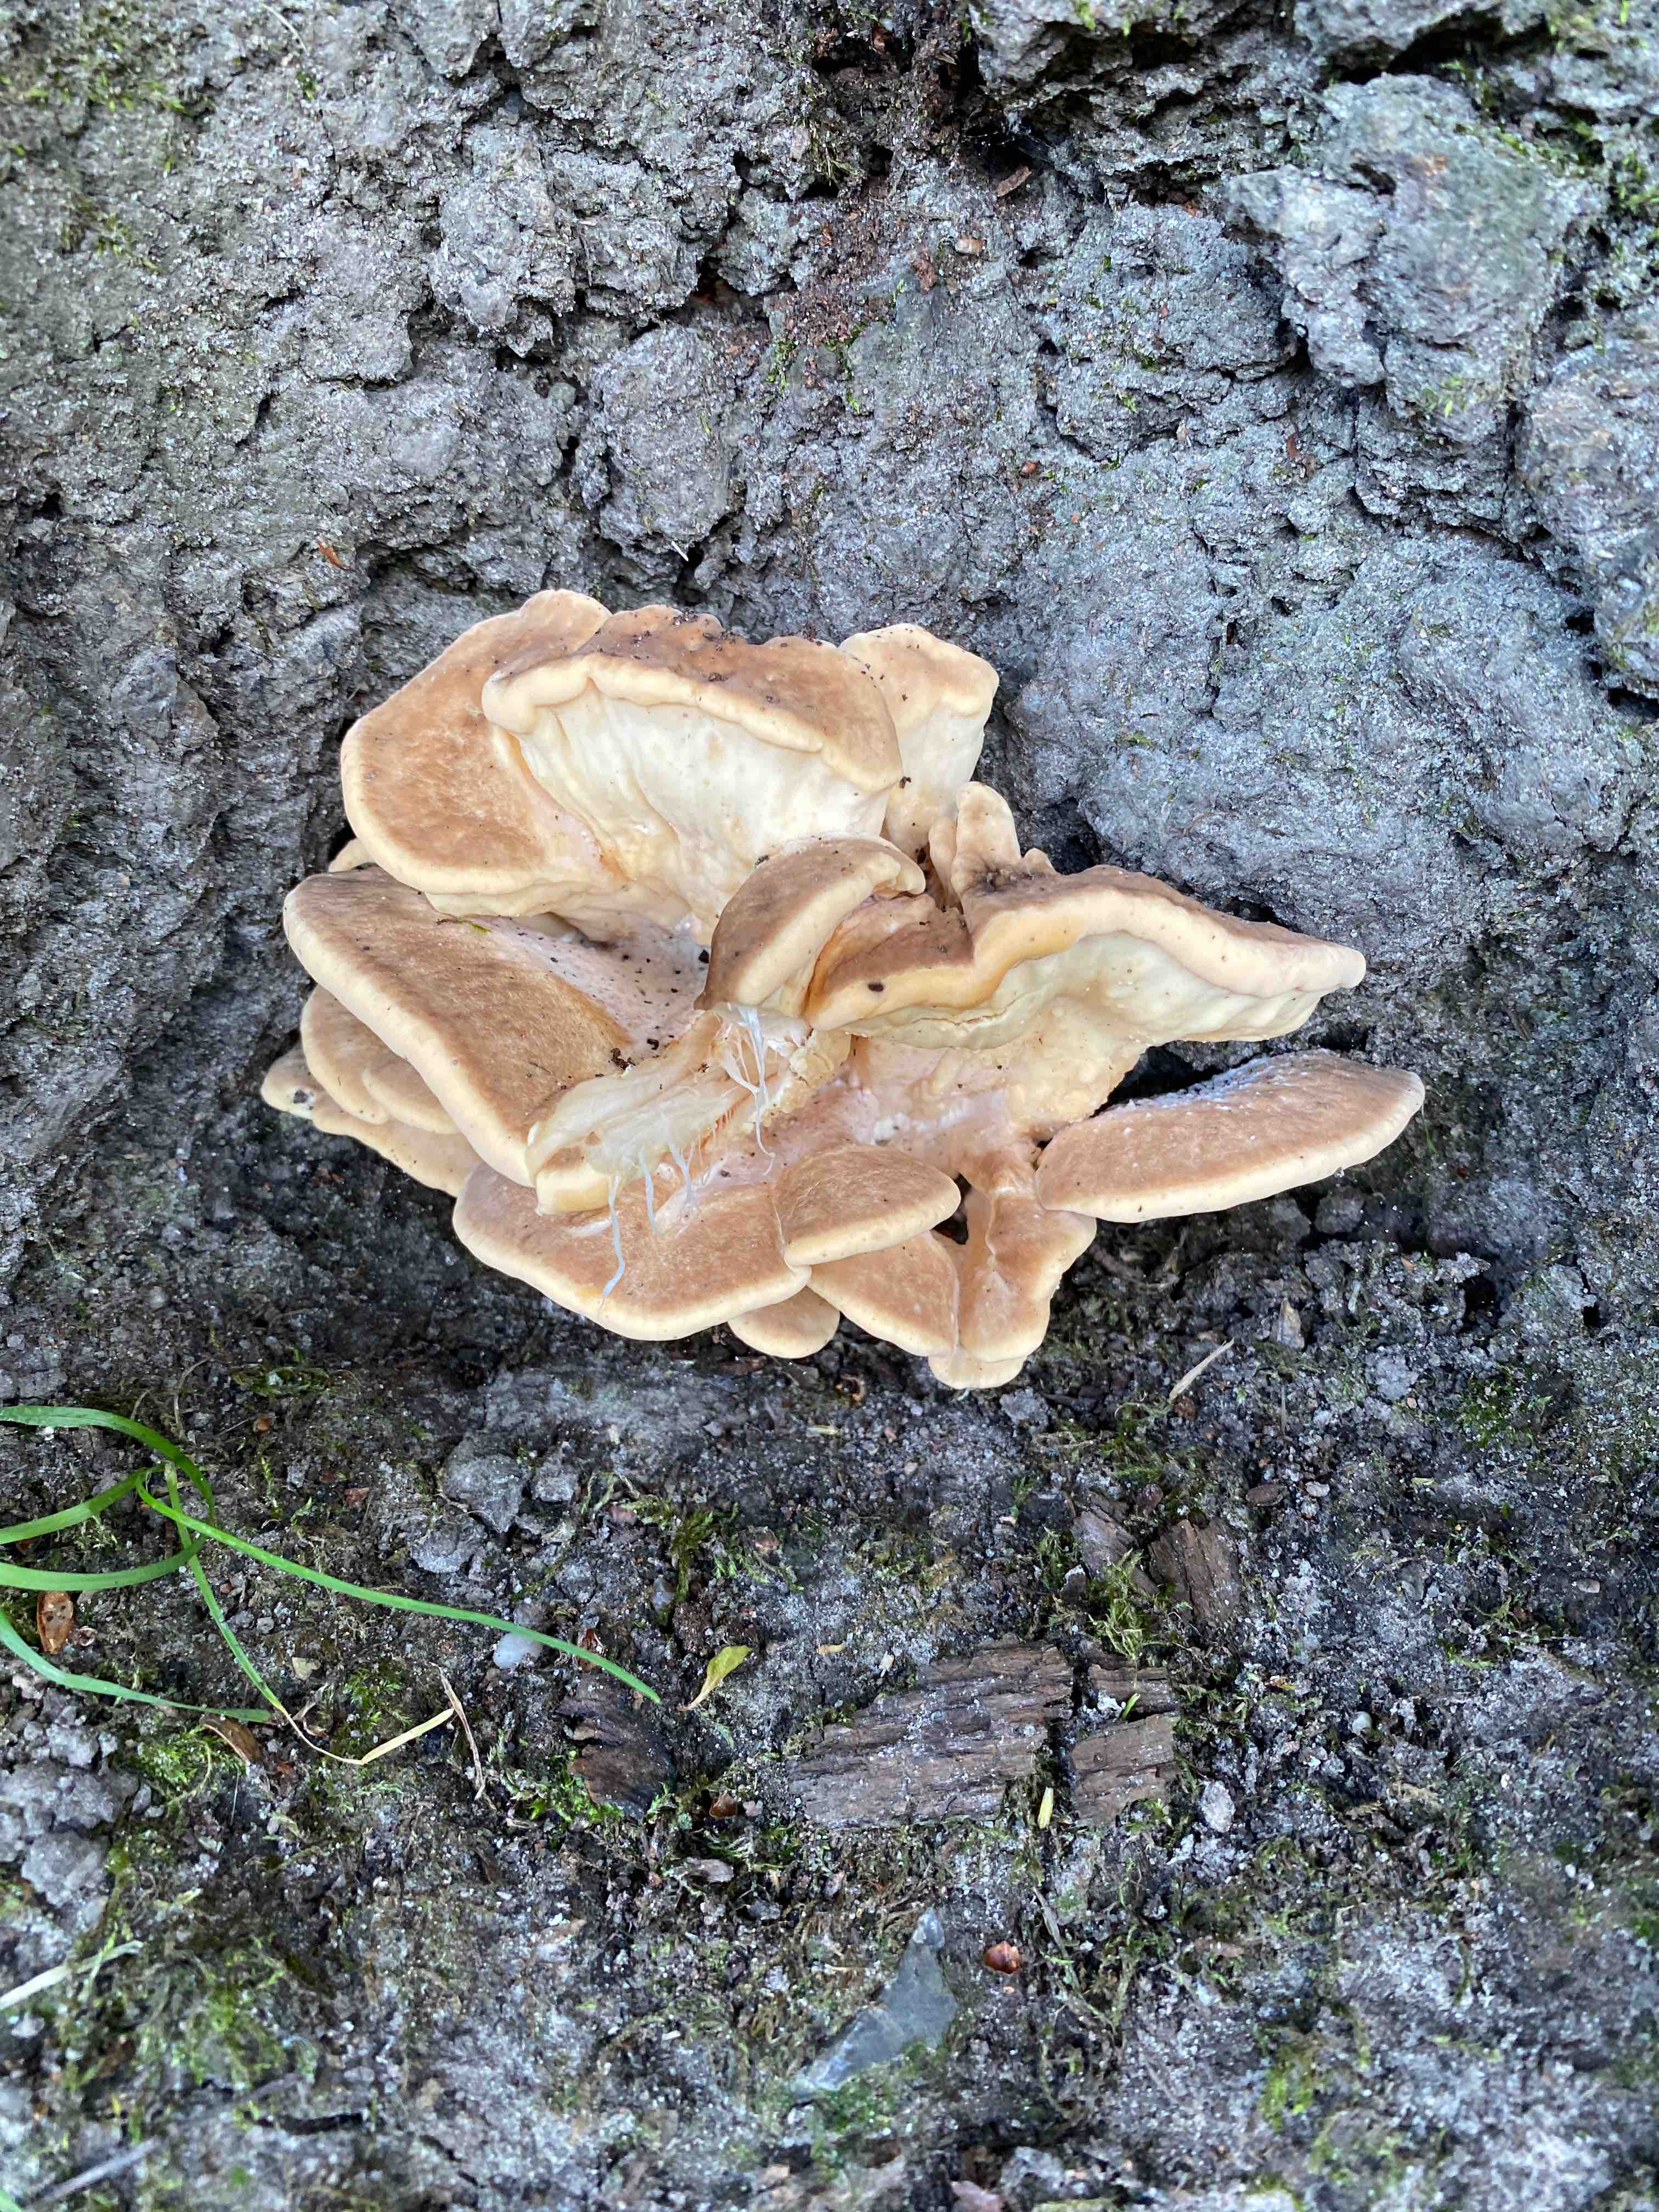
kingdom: Fungi
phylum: Basidiomycota
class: Agaricomycetes
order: Polyporales
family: Meripilaceae
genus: Meripilus
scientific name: Meripilus giganteus
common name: kæmpeporesvamp
